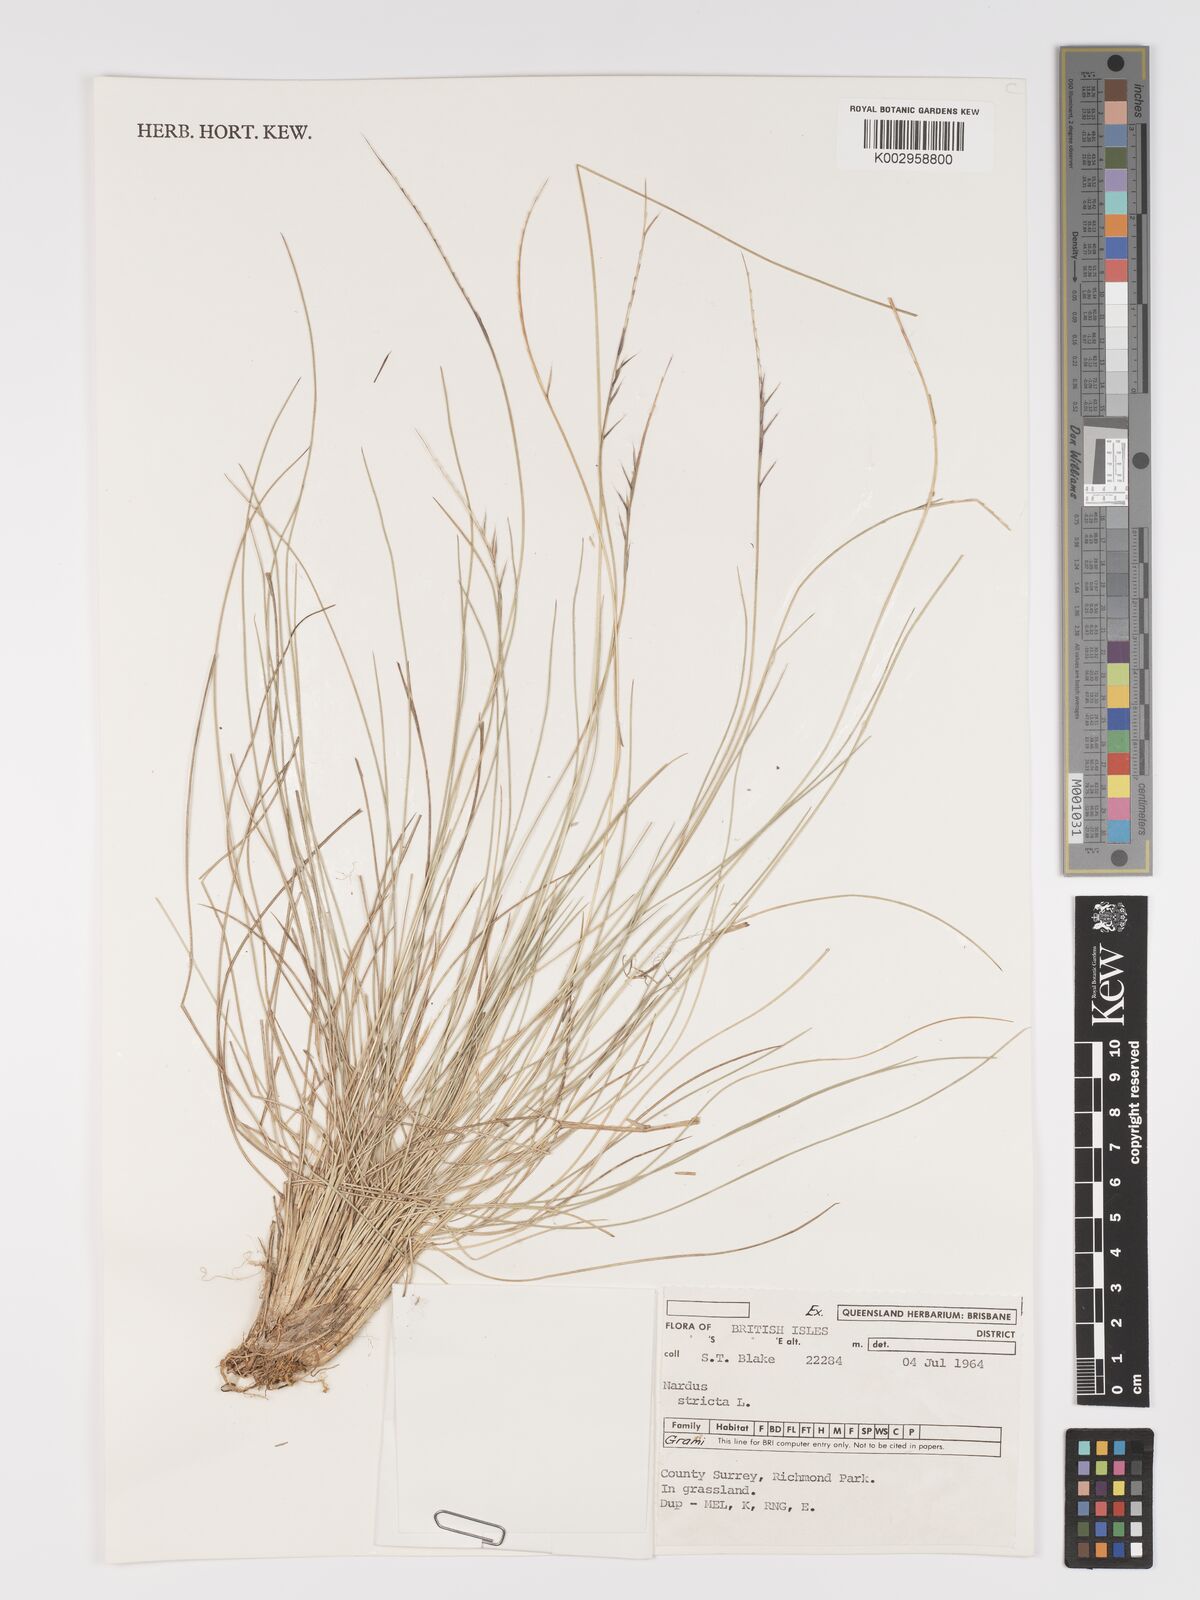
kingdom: Plantae
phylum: Tracheophyta
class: Liliopsida
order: Poales
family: Poaceae
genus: Nardus
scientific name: Nardus stricta
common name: Mat-grass
